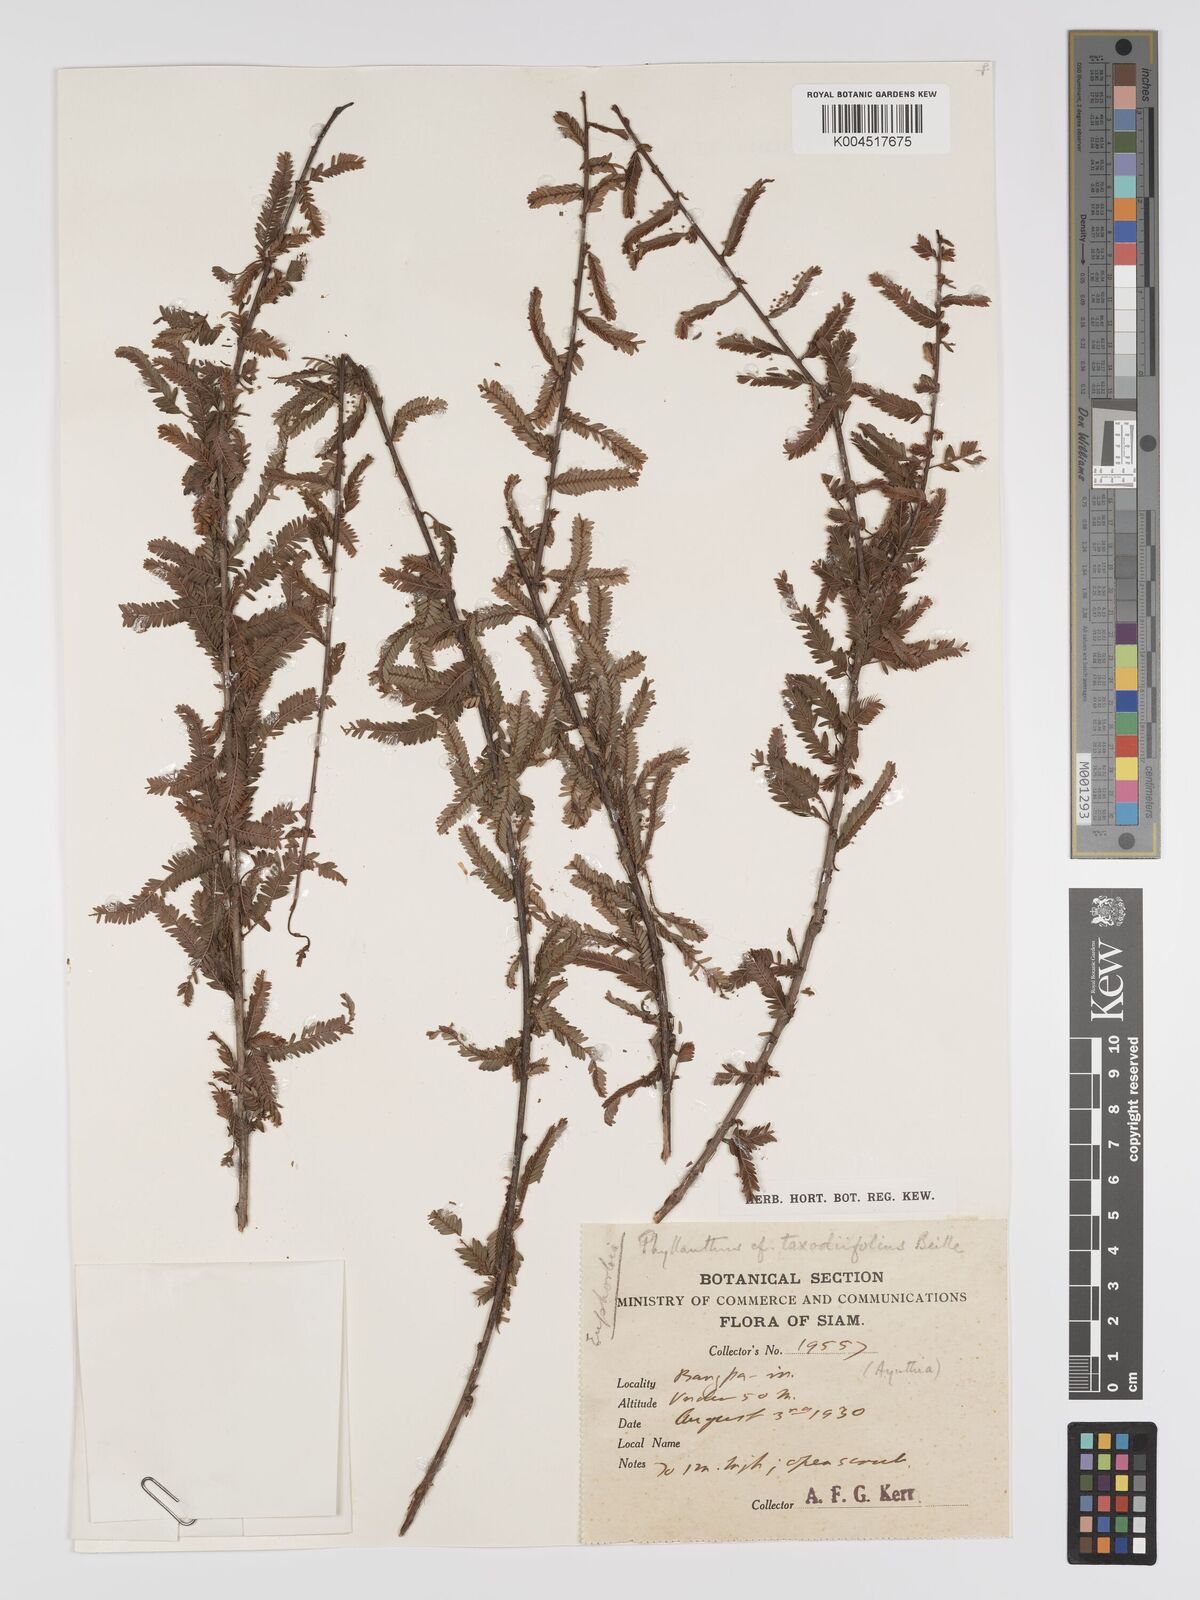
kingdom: Plantae
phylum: Tracheophyta
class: Magnoliopsida
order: Malpighiales
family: Phyllanthaceae
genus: Phyllanthus
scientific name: Phyllanthus taxodiifolius
